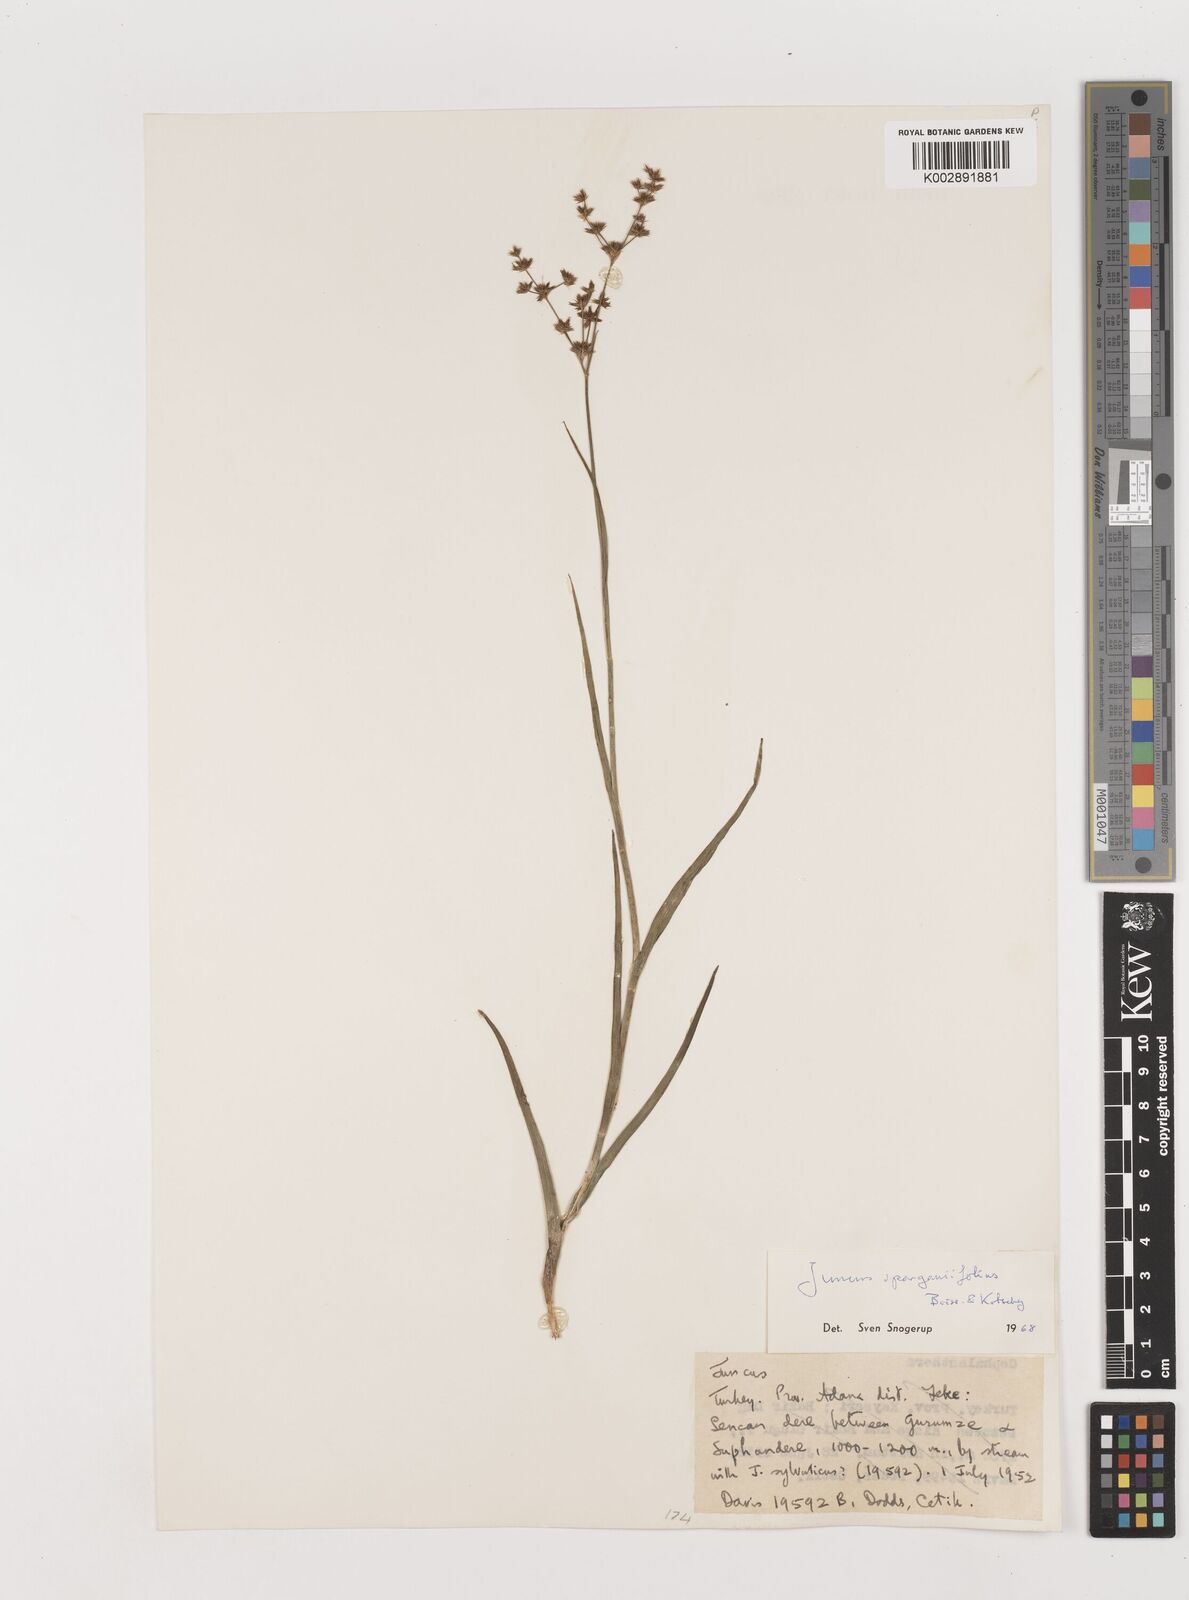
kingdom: Plantae
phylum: Tracheophyta
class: Liliopsida
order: Poales
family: Juncaceae
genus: Juncus
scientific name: Juncus sparganiifolius
